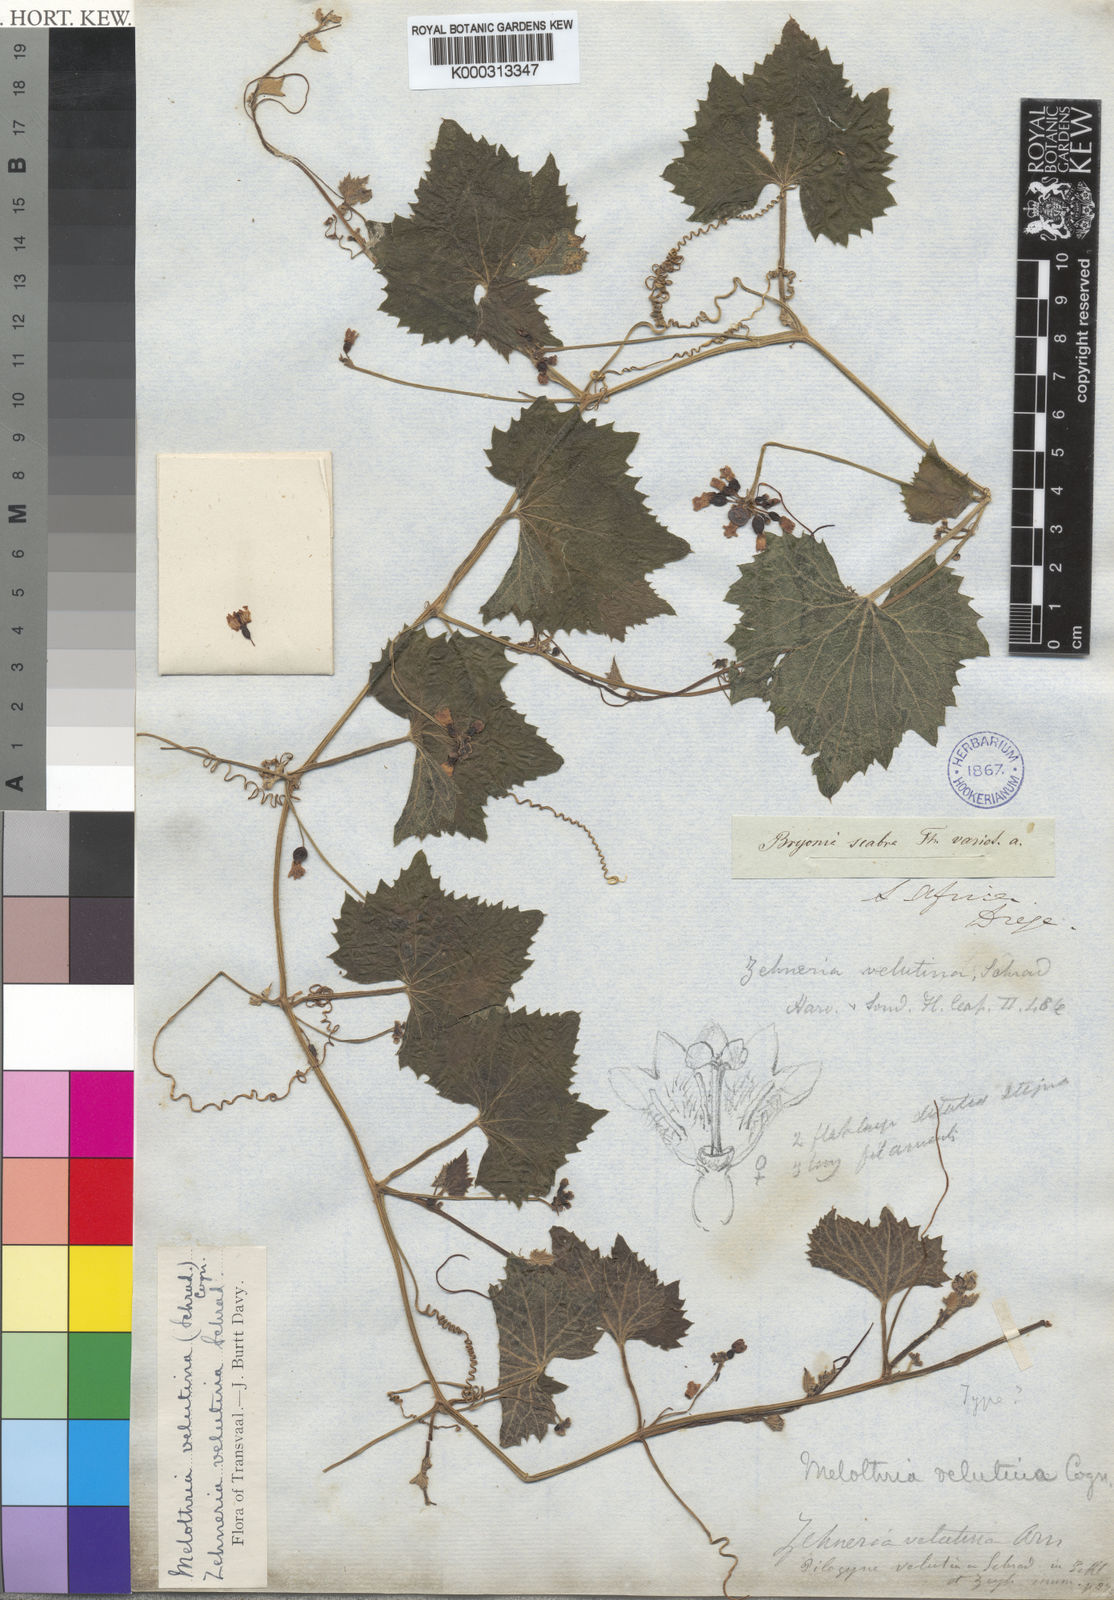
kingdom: Plantae
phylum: Tracheophyta
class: Magnoliopsida
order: Cucurbitales
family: Cucurbitaceae
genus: Zehneria
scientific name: Zehneria scabra
